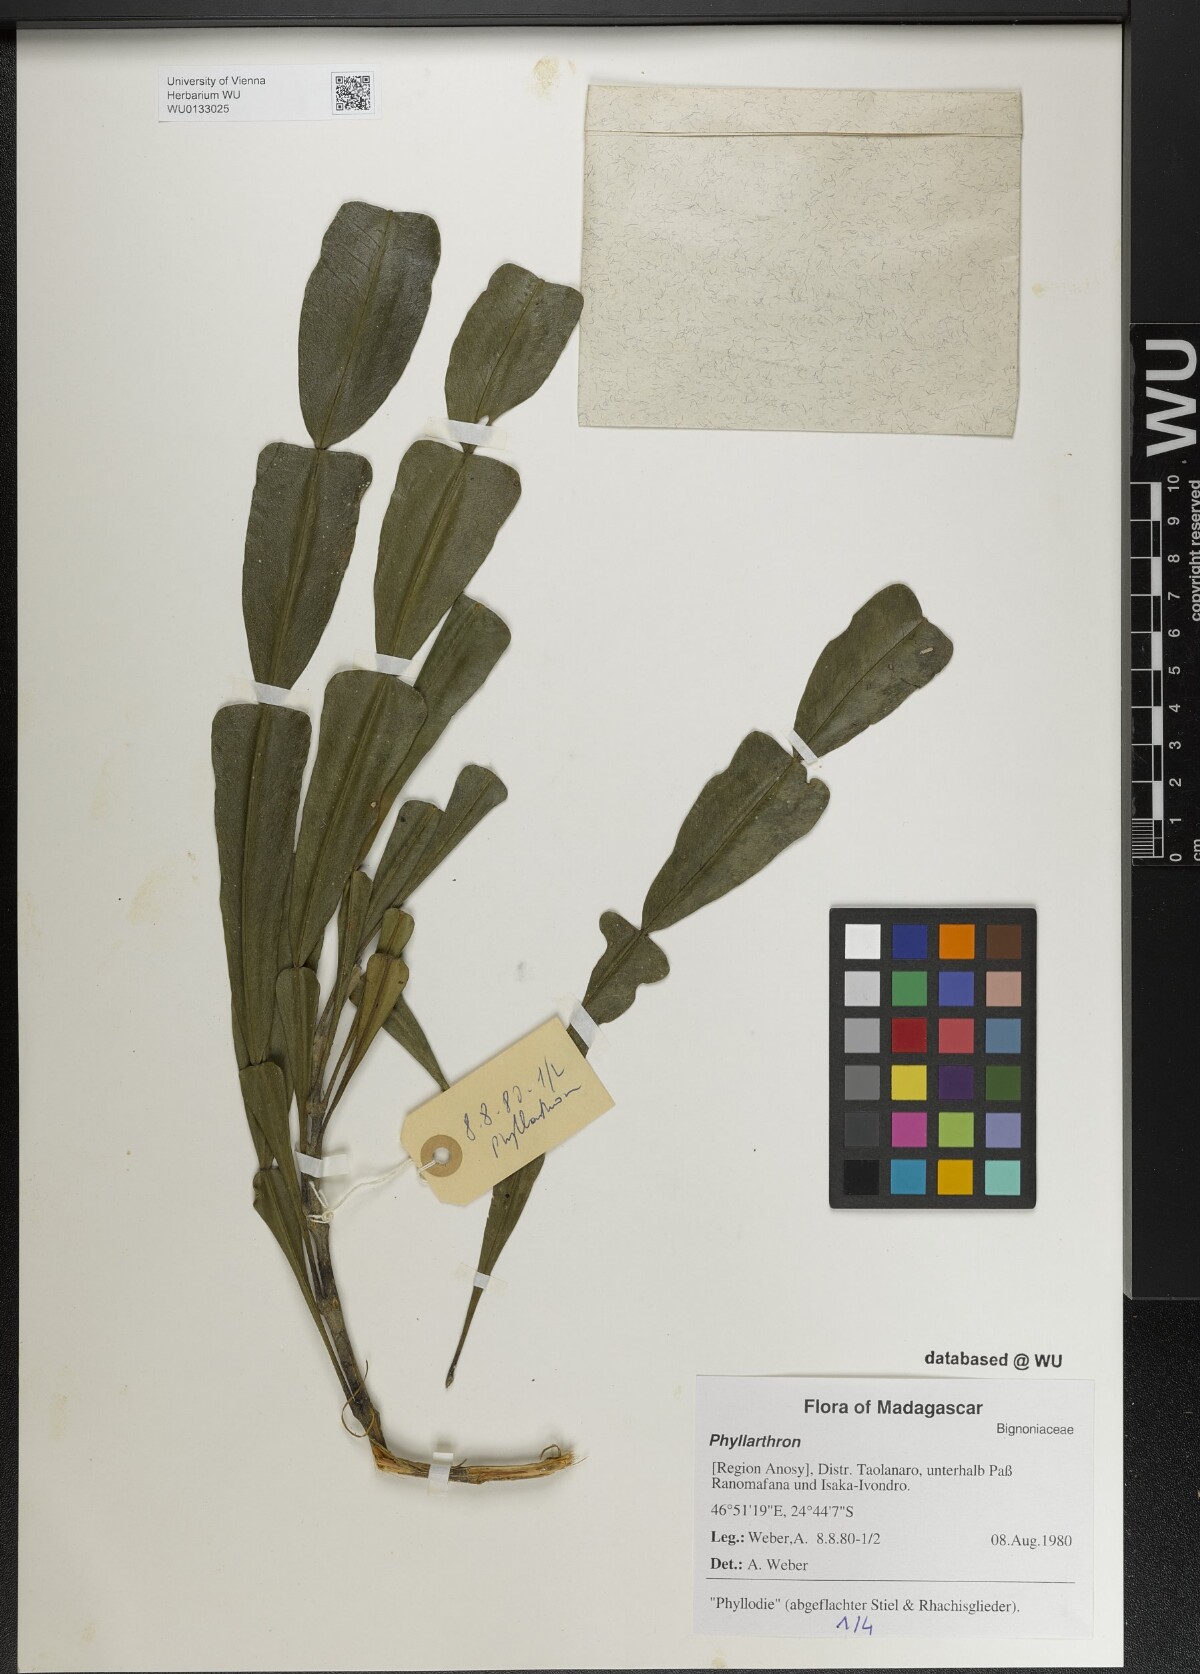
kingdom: Plantae
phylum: Tracheophyta
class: Magnoliopsida
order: Lamiales
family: Bignoniaceae
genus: Phyllarthron
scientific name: Phyllarthron
